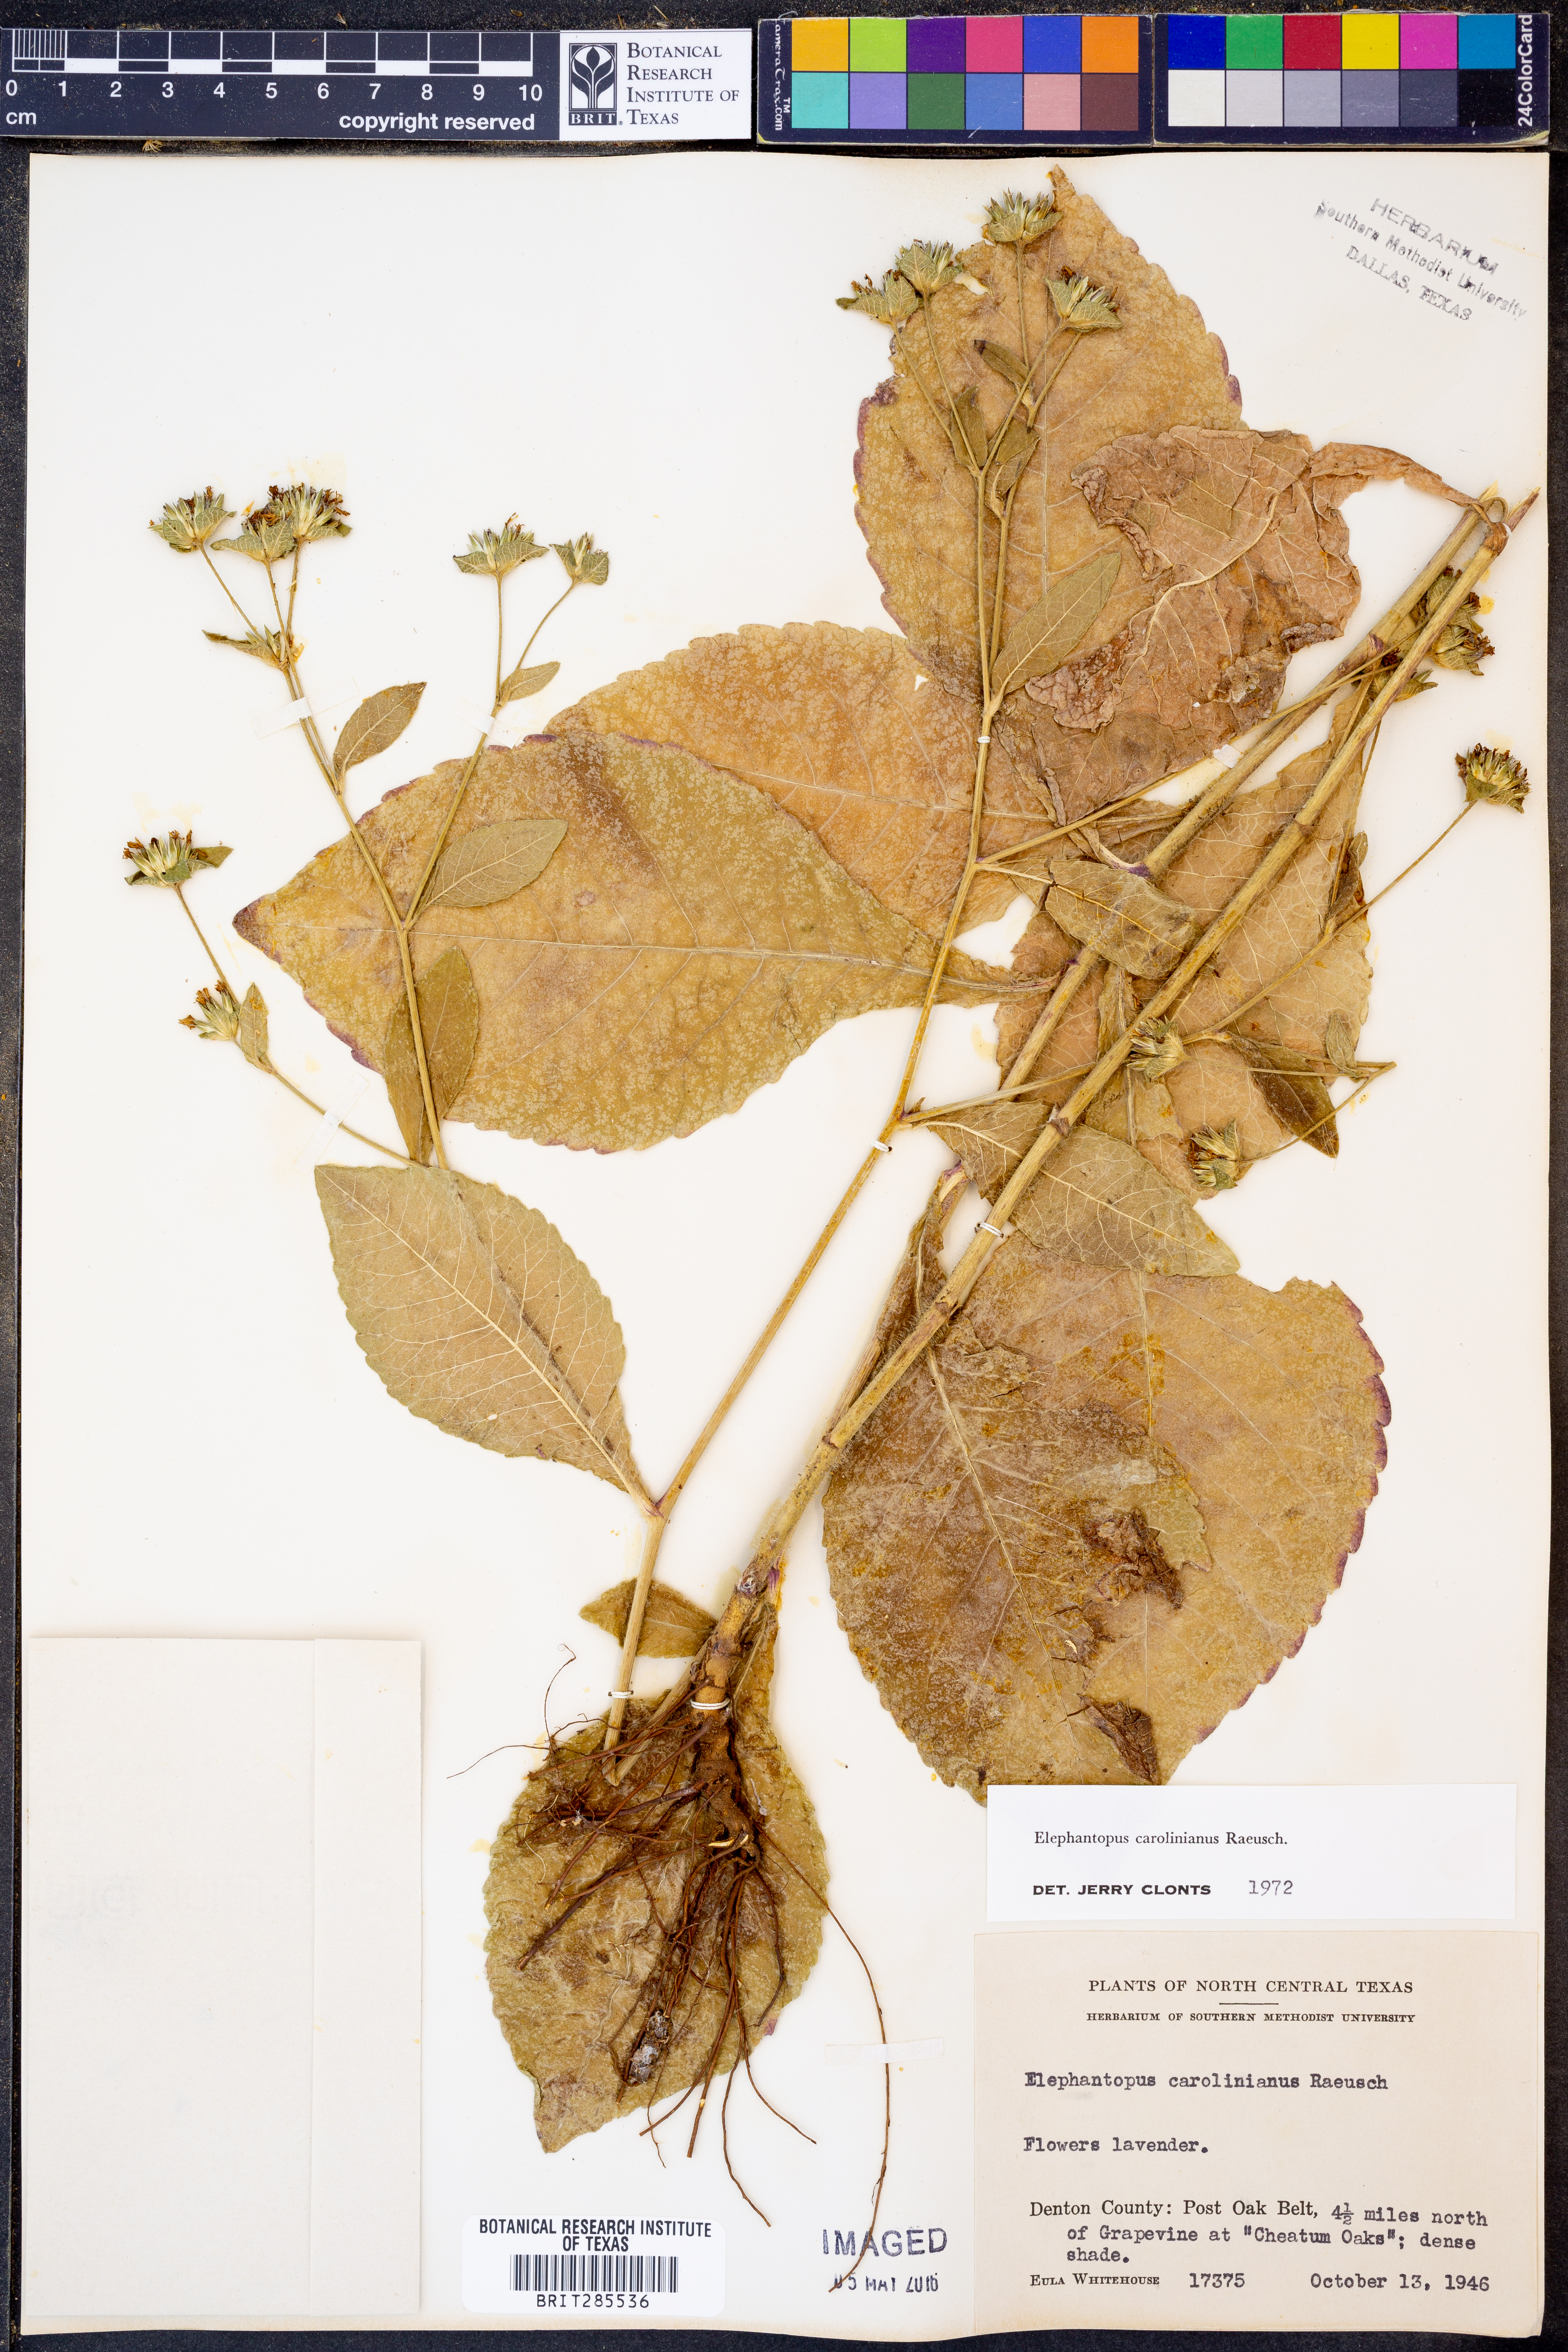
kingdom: Plantae
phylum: Tracheophyta
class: Magnoliopsida
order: Asterales
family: Asteraceae
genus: Elephantopus
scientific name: Elephantopus carolinianus
